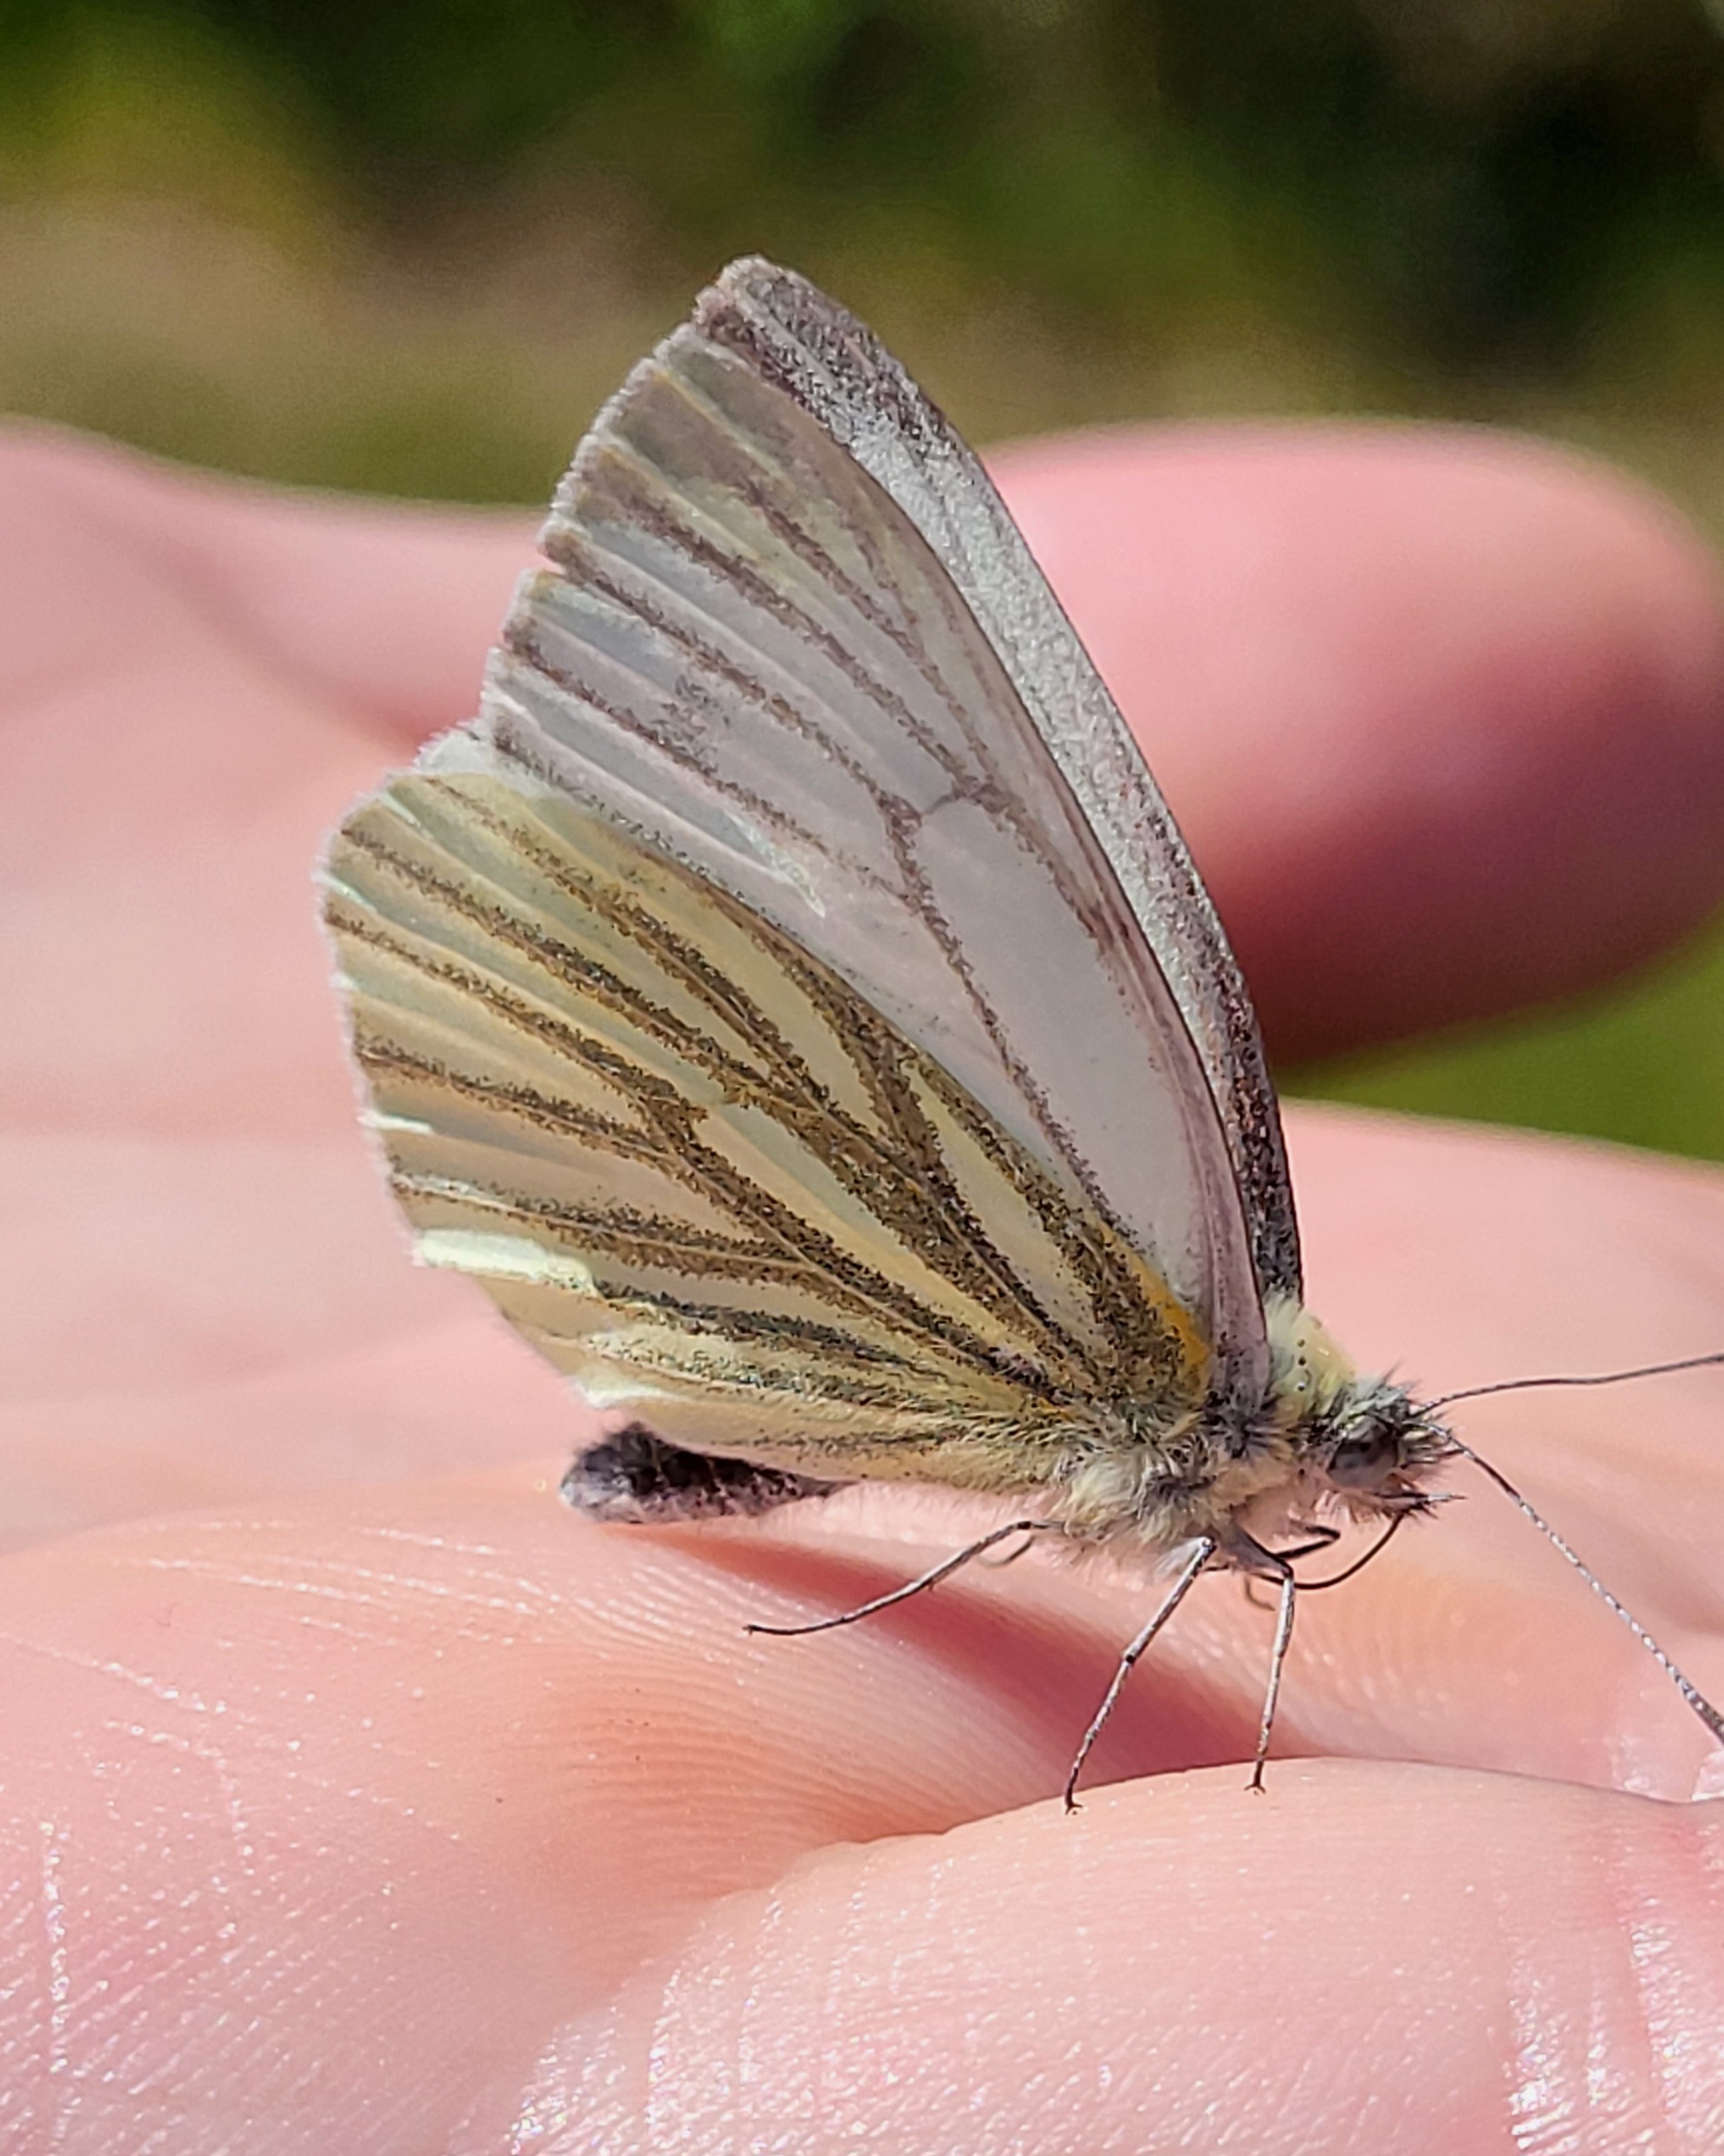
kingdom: Animalia
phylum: Arthropoda
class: Insecta
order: Lepidoptera
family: Pieridae
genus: Pieris
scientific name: Pieris napi
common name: Grønåret kålsommerfugl
